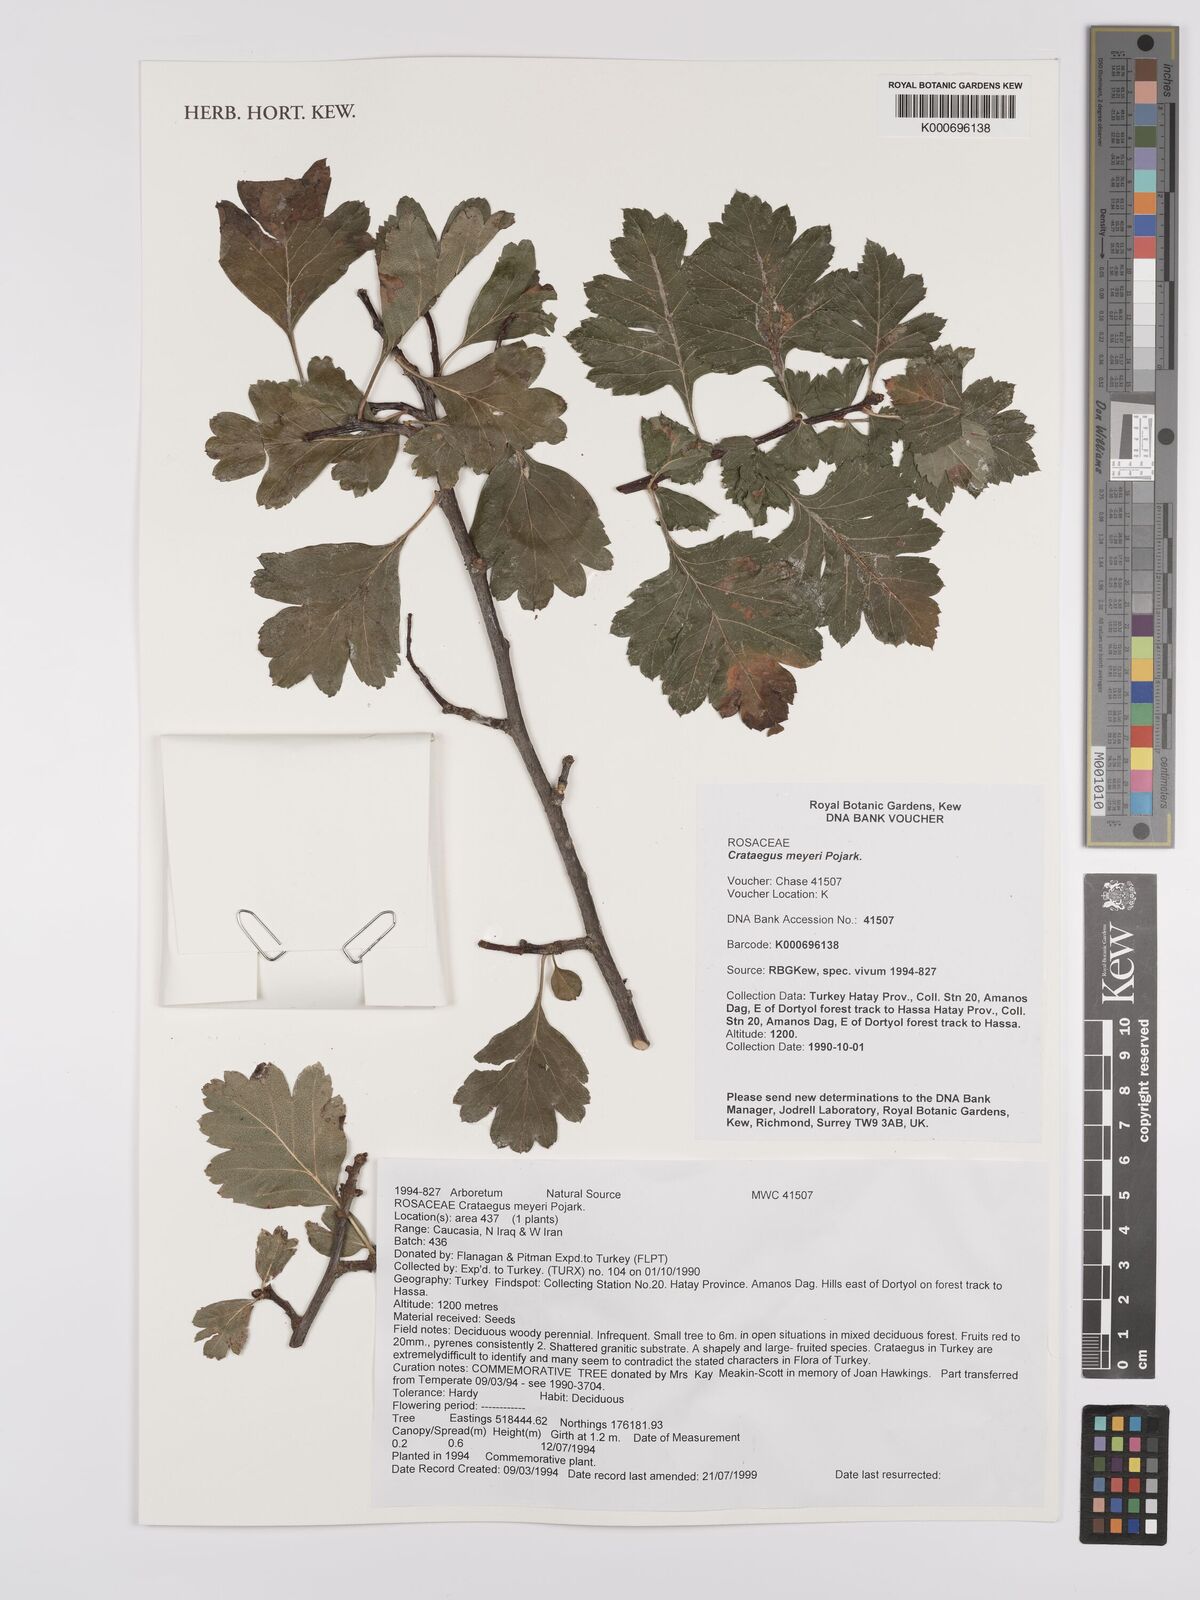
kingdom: Plantae
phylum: Tracheophyta
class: Magnoliopsida
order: Rosales
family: Rosaceae
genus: Crataegus
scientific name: Crataegus meyeri
